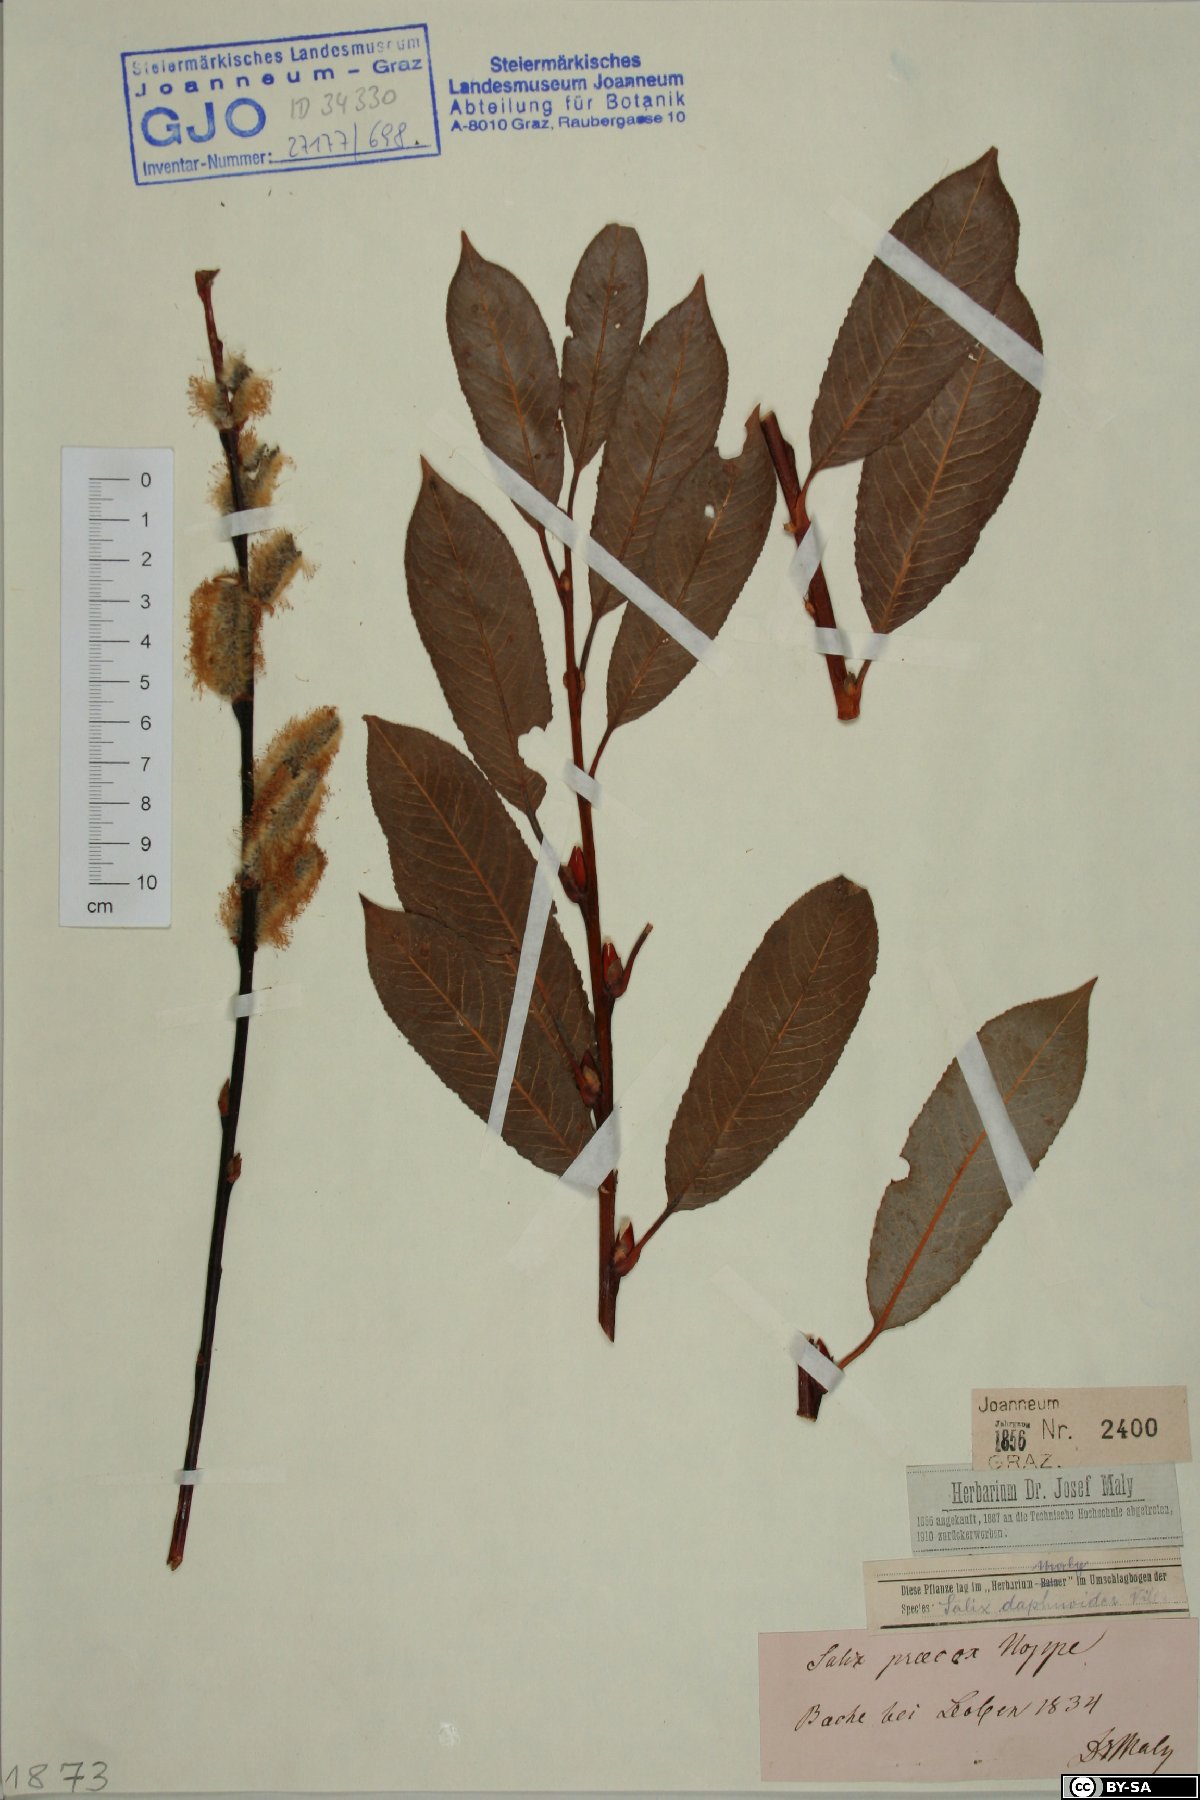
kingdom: Plantae
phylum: Tracheophyta
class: Magnoliopsida
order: Malpighiales
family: Salicaceae
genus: Salix
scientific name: Salix daphnoides
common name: European violet-willow
